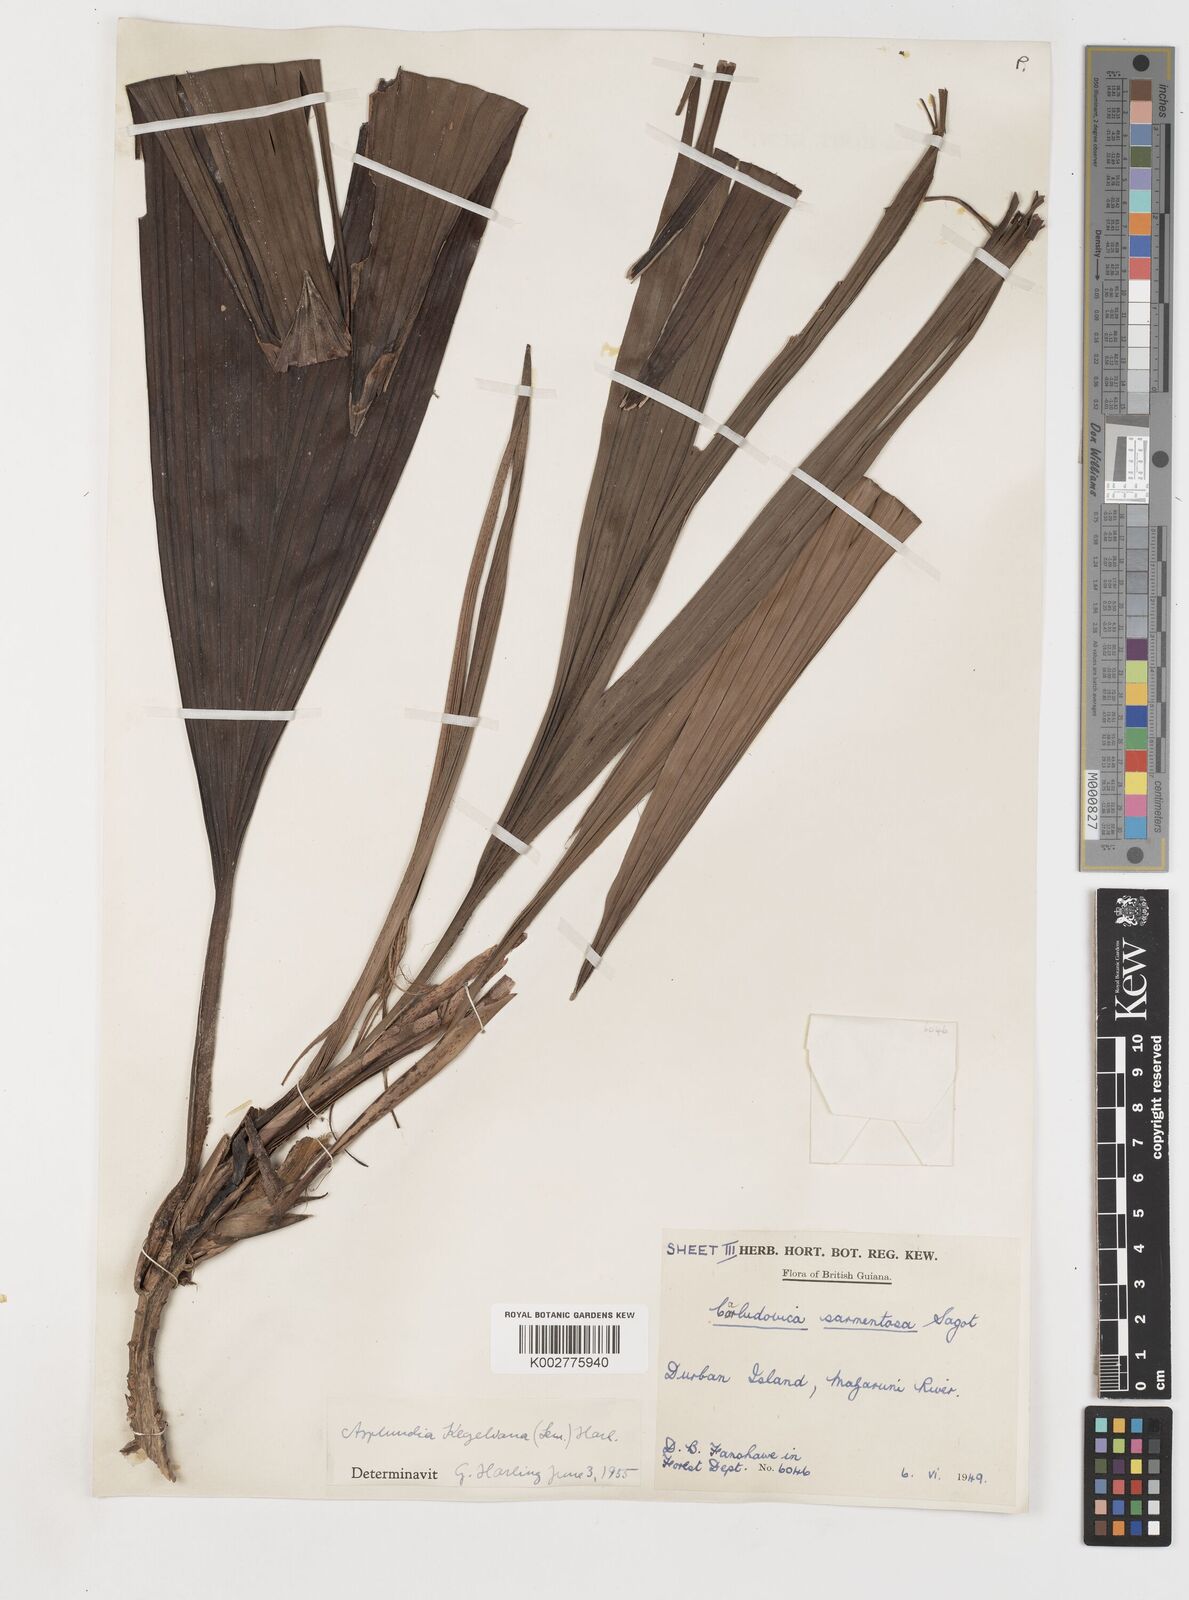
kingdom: Plantae
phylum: Tracheophyta
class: Liliopsida
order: Pandanales
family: Cyclanthaceae
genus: Thoracocarpus
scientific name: Thoracocarpus bissectus
